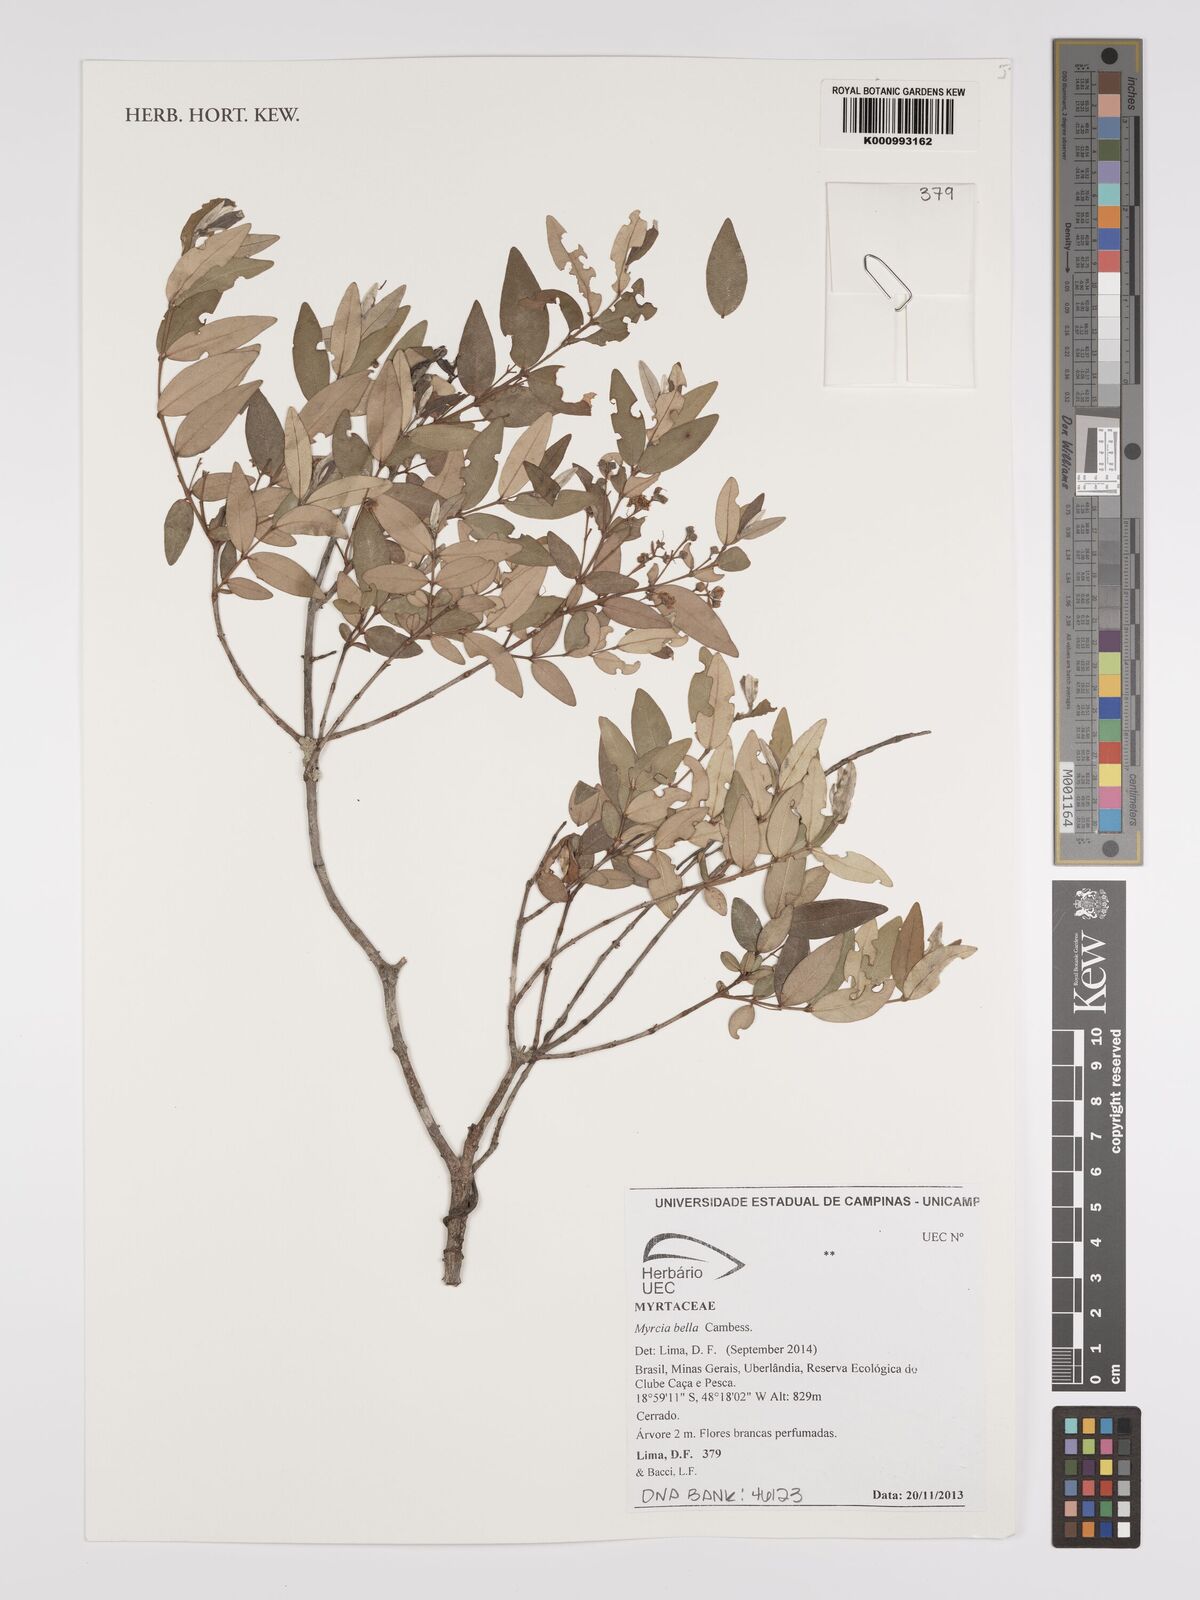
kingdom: Plantae
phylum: Tracheophyta
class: Magnoliopsida
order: Myrtales
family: Myrtaceae
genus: Myrcia
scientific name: Myrcia bella
